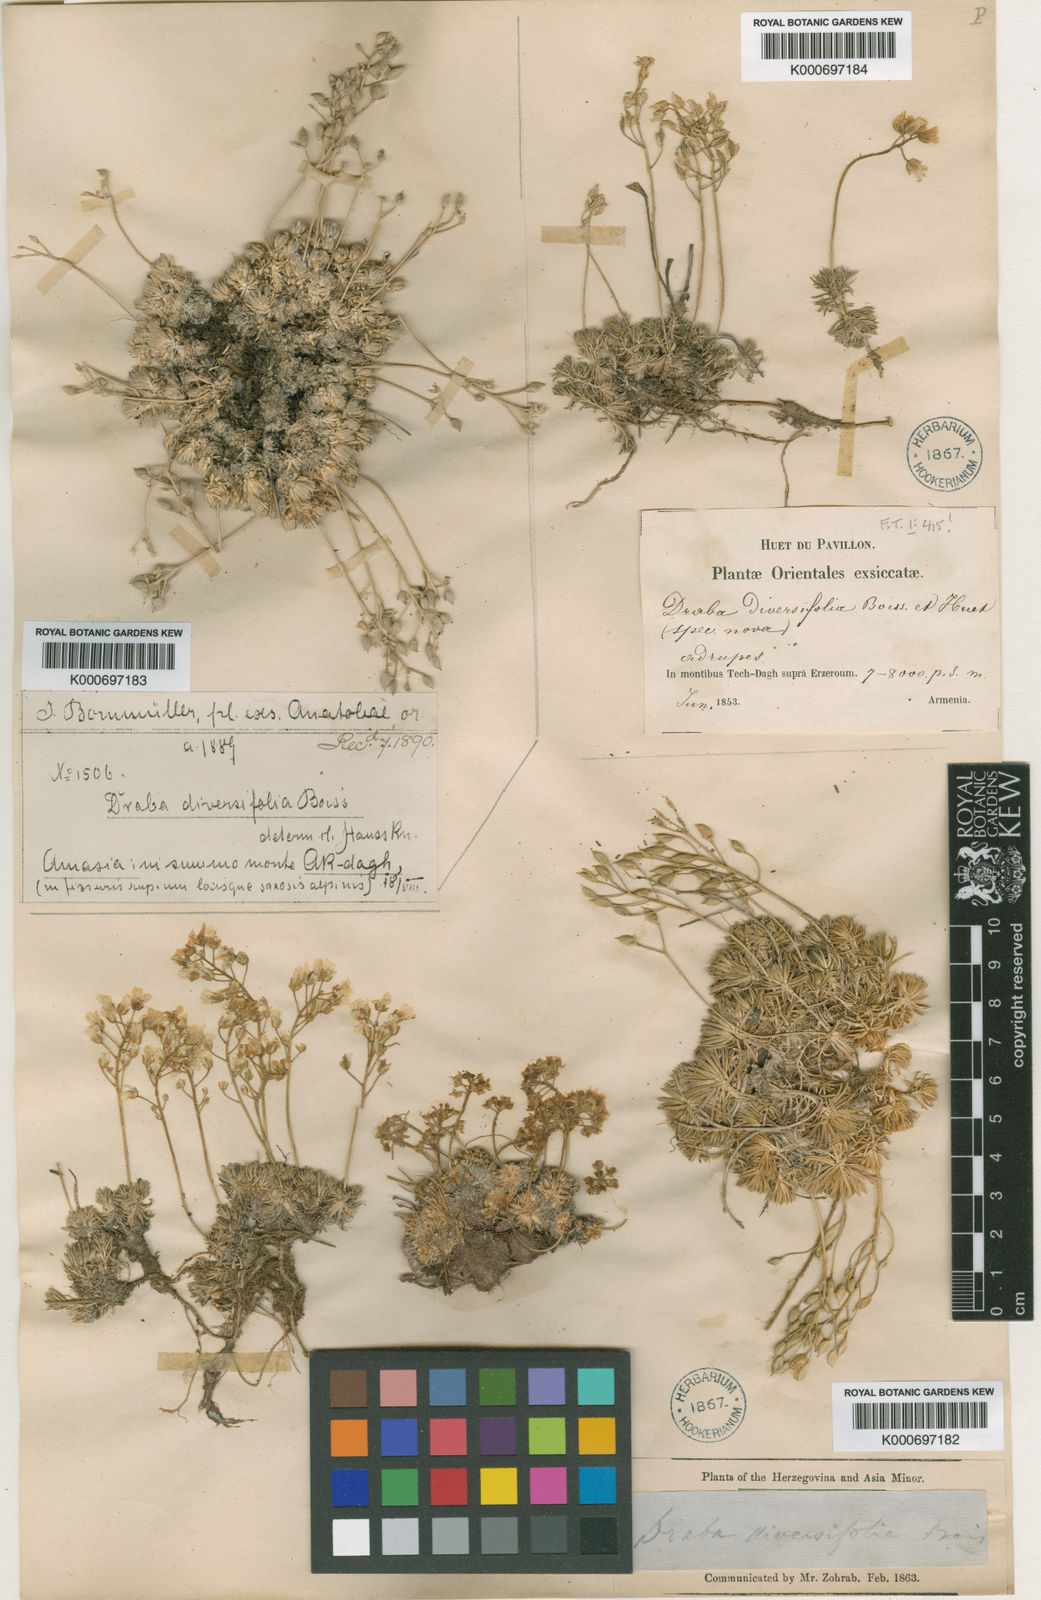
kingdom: Plantae
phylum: Tracheophyta
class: Magnoliopsida
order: Brassicales
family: Brassicaceae
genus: Draba
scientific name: Draba bruniifolia
